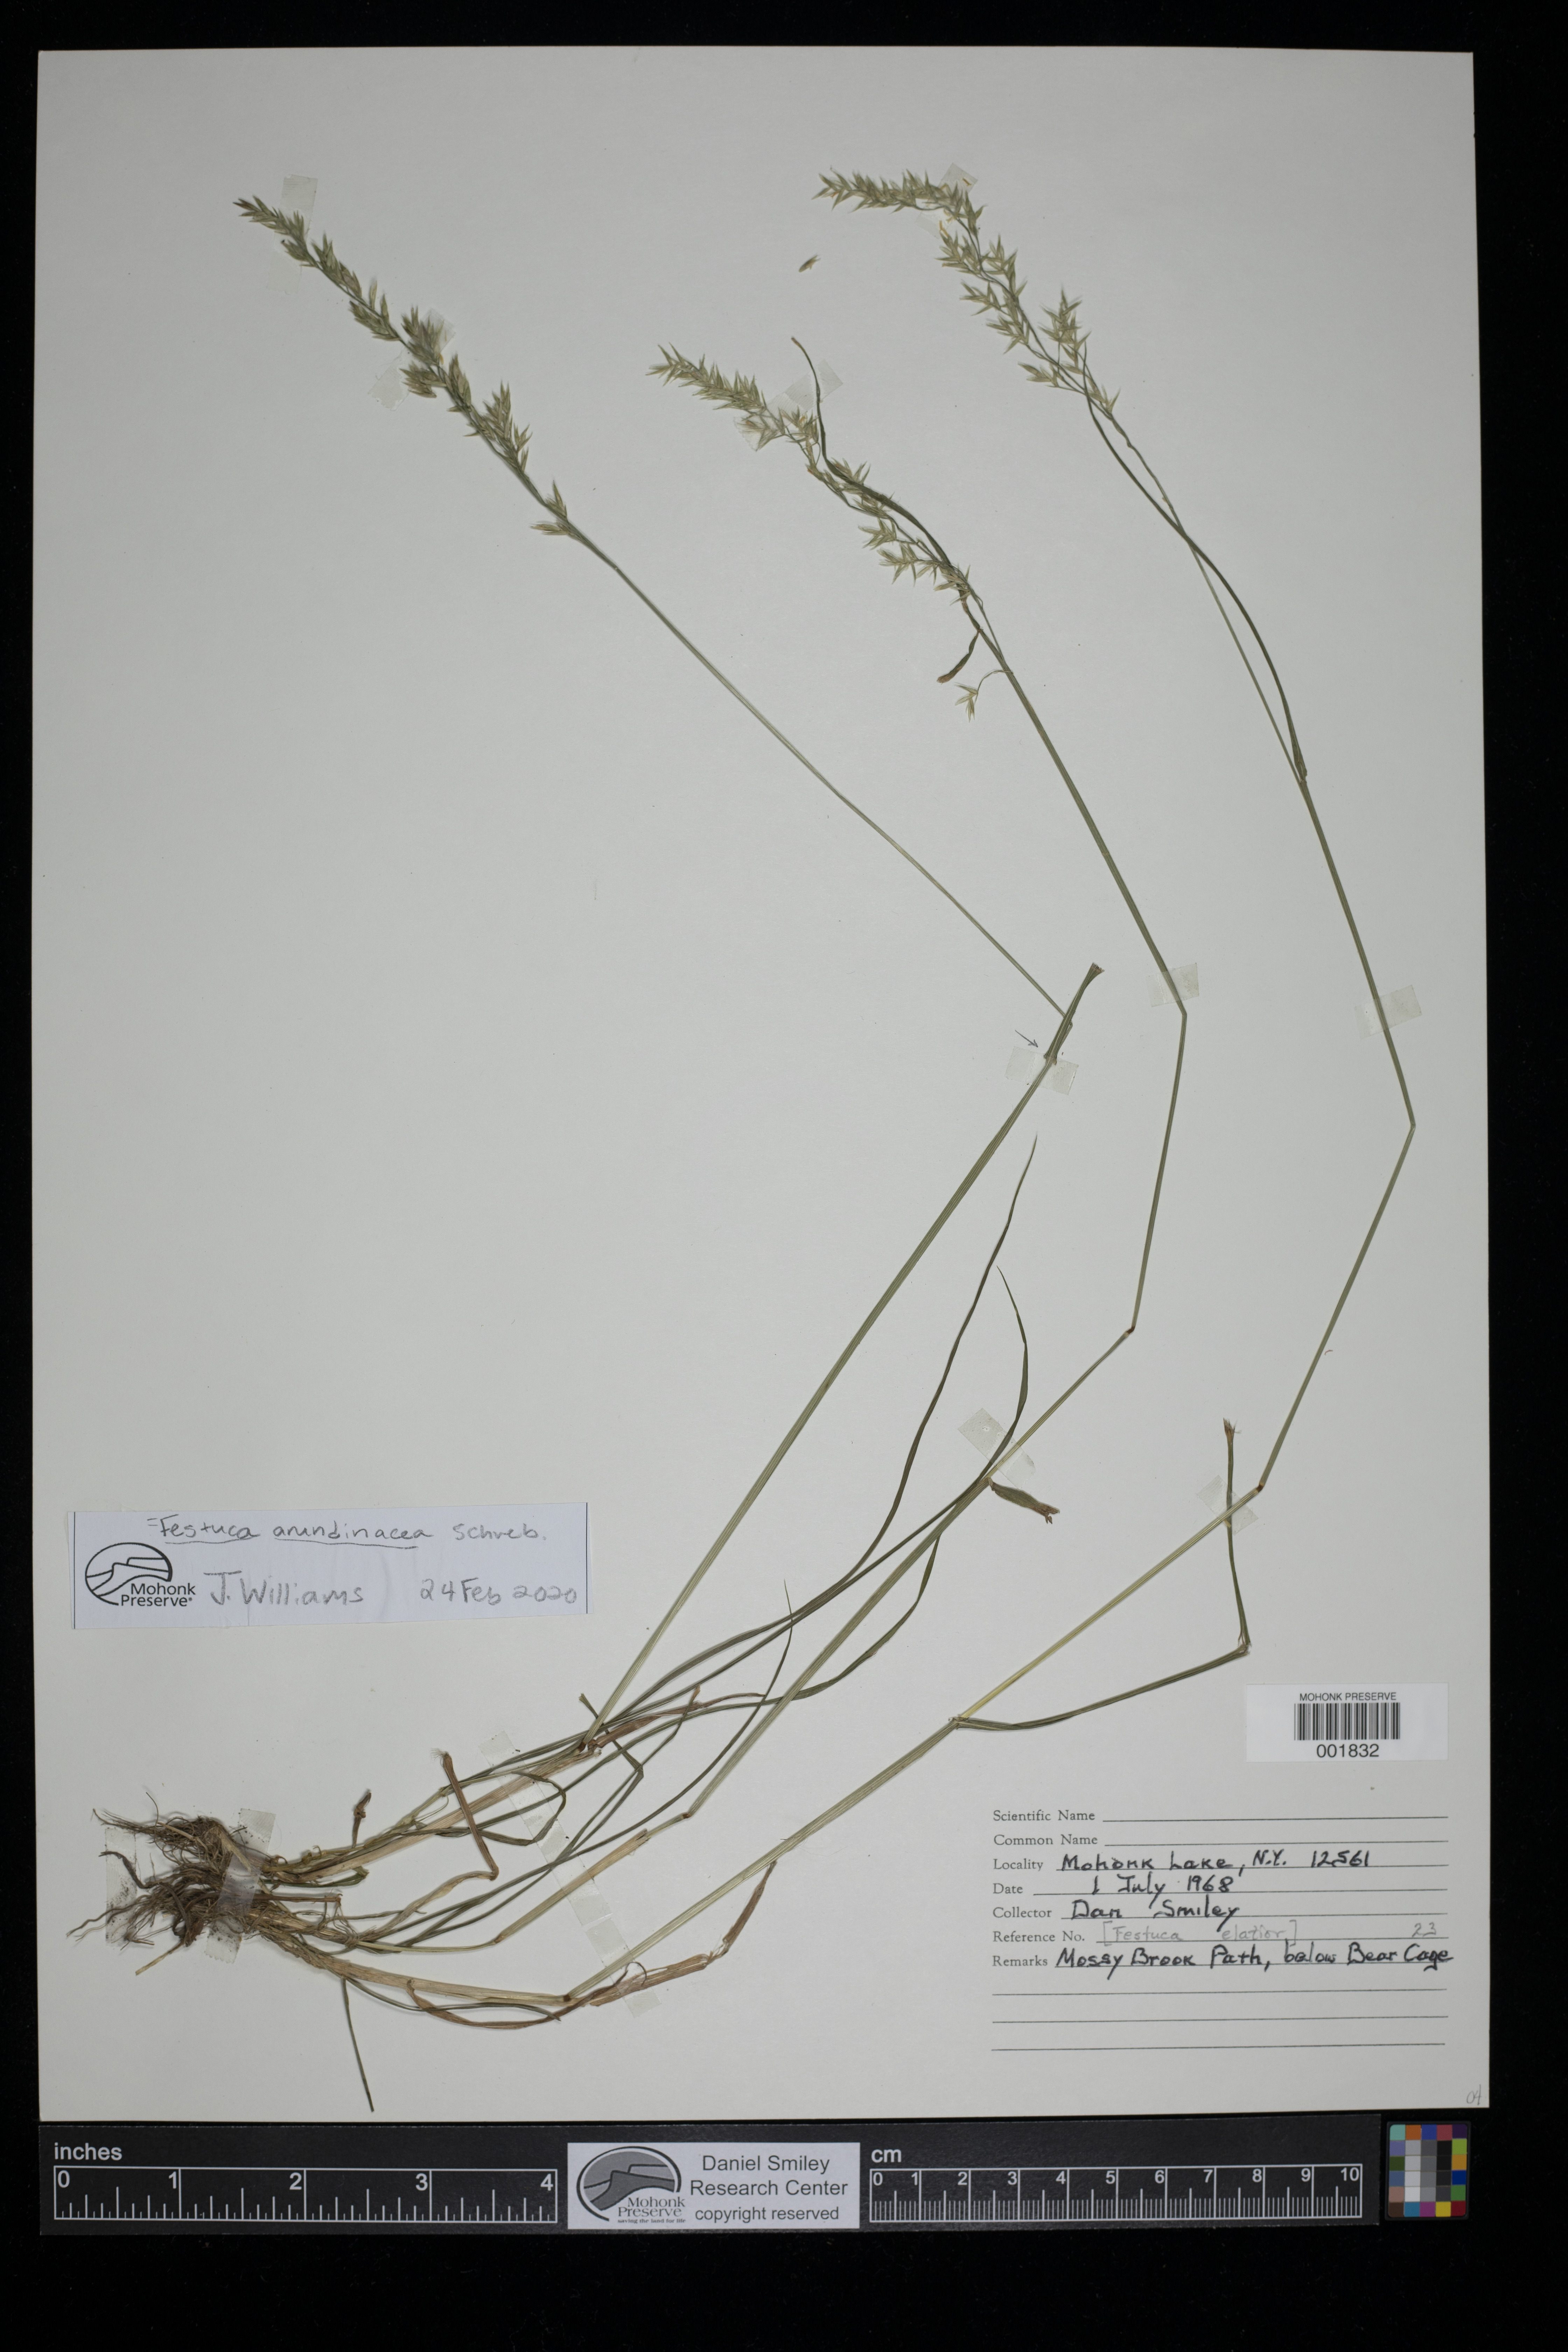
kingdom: Plantae
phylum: Tracheophyta
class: Liliopsida
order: Poales
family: Poaceae
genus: Lolium
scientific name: Lolium arundinaceum
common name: Reed fescue
